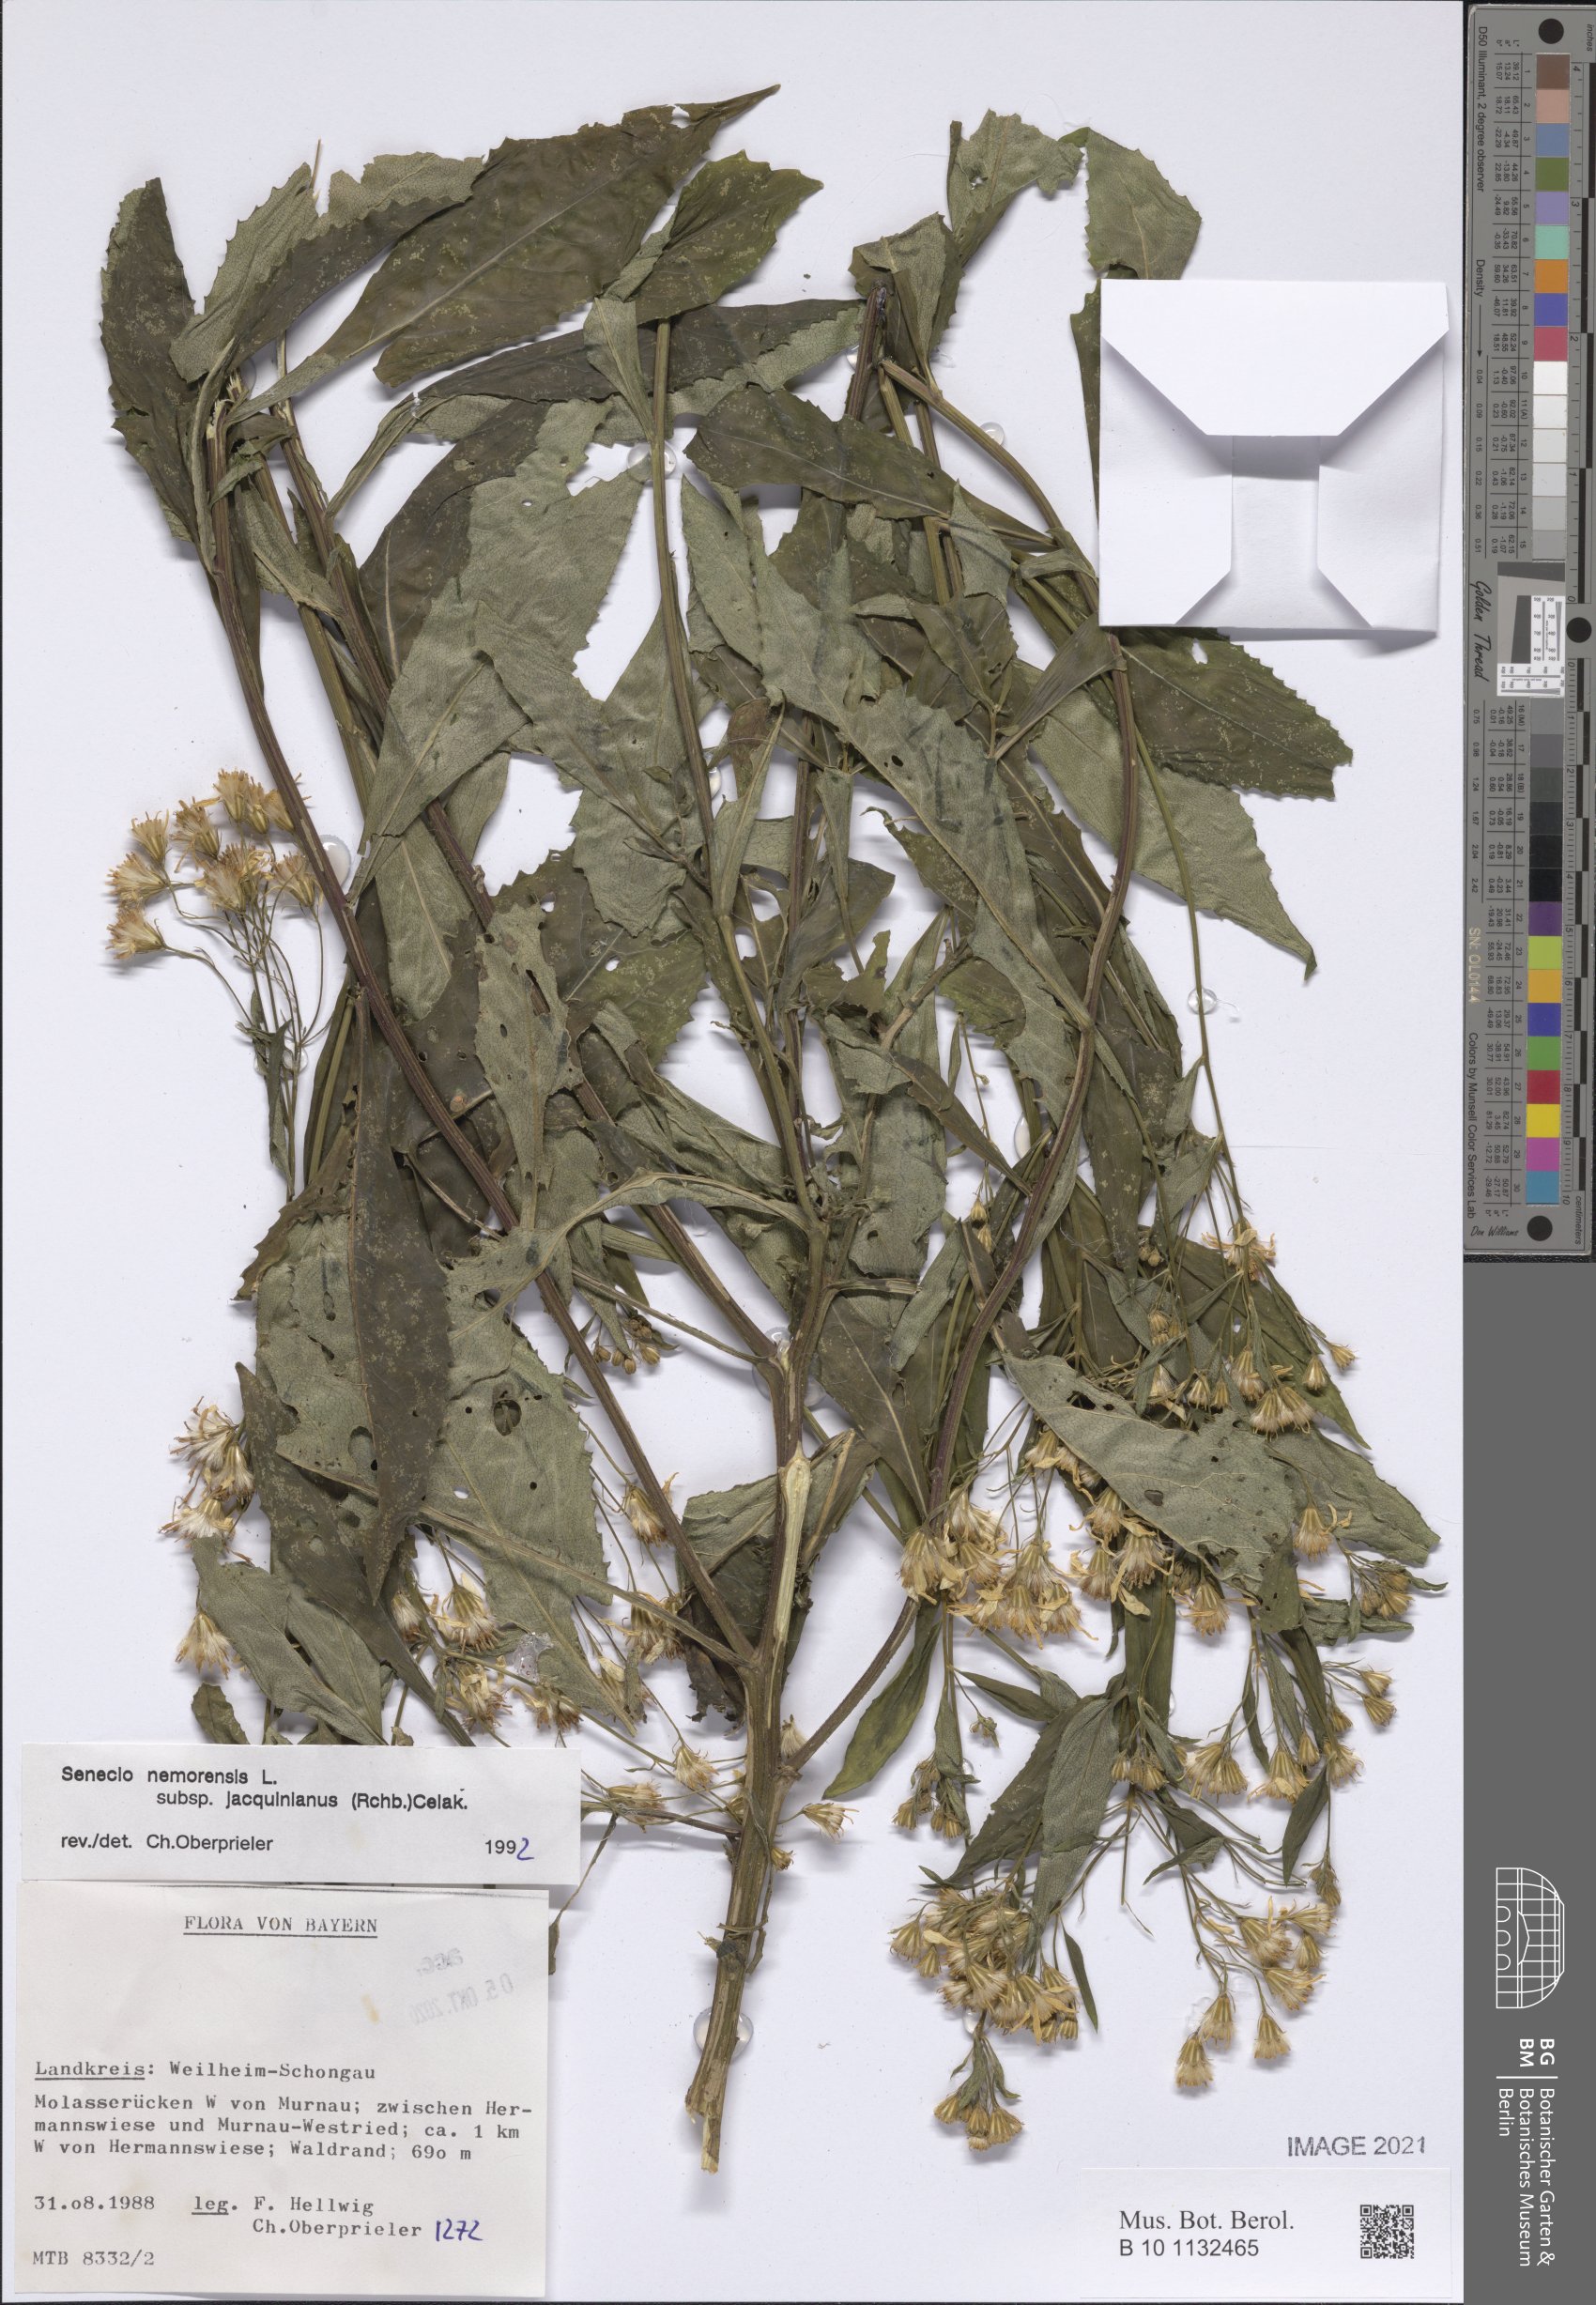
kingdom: Plantae
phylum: Tracheophyta
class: Magnoliopsida
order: Asterales
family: Asteraceae
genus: Senecio
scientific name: Senecio germanicus
